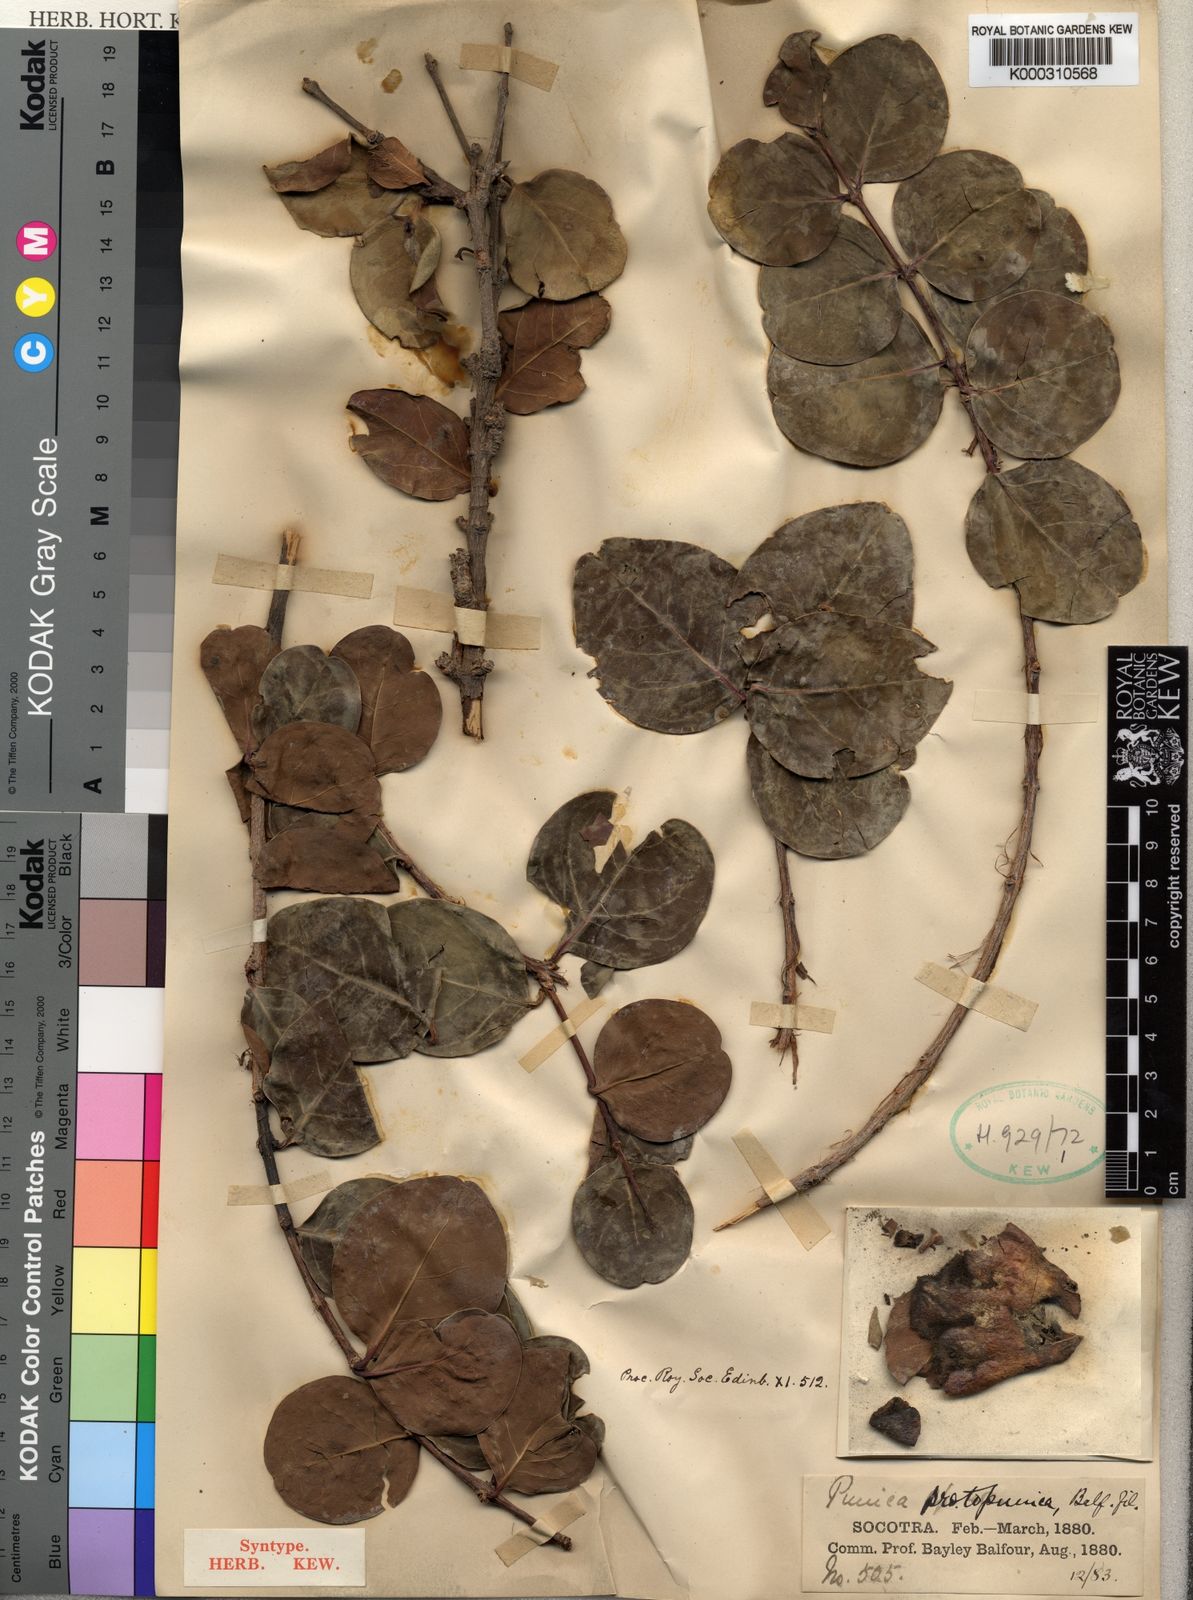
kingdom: Plantae
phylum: Tracheophyta
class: Magnoliopsida
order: Myrtales
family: Lythraceae
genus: Punica
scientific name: Punica protopunica
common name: Pomegranate tree
